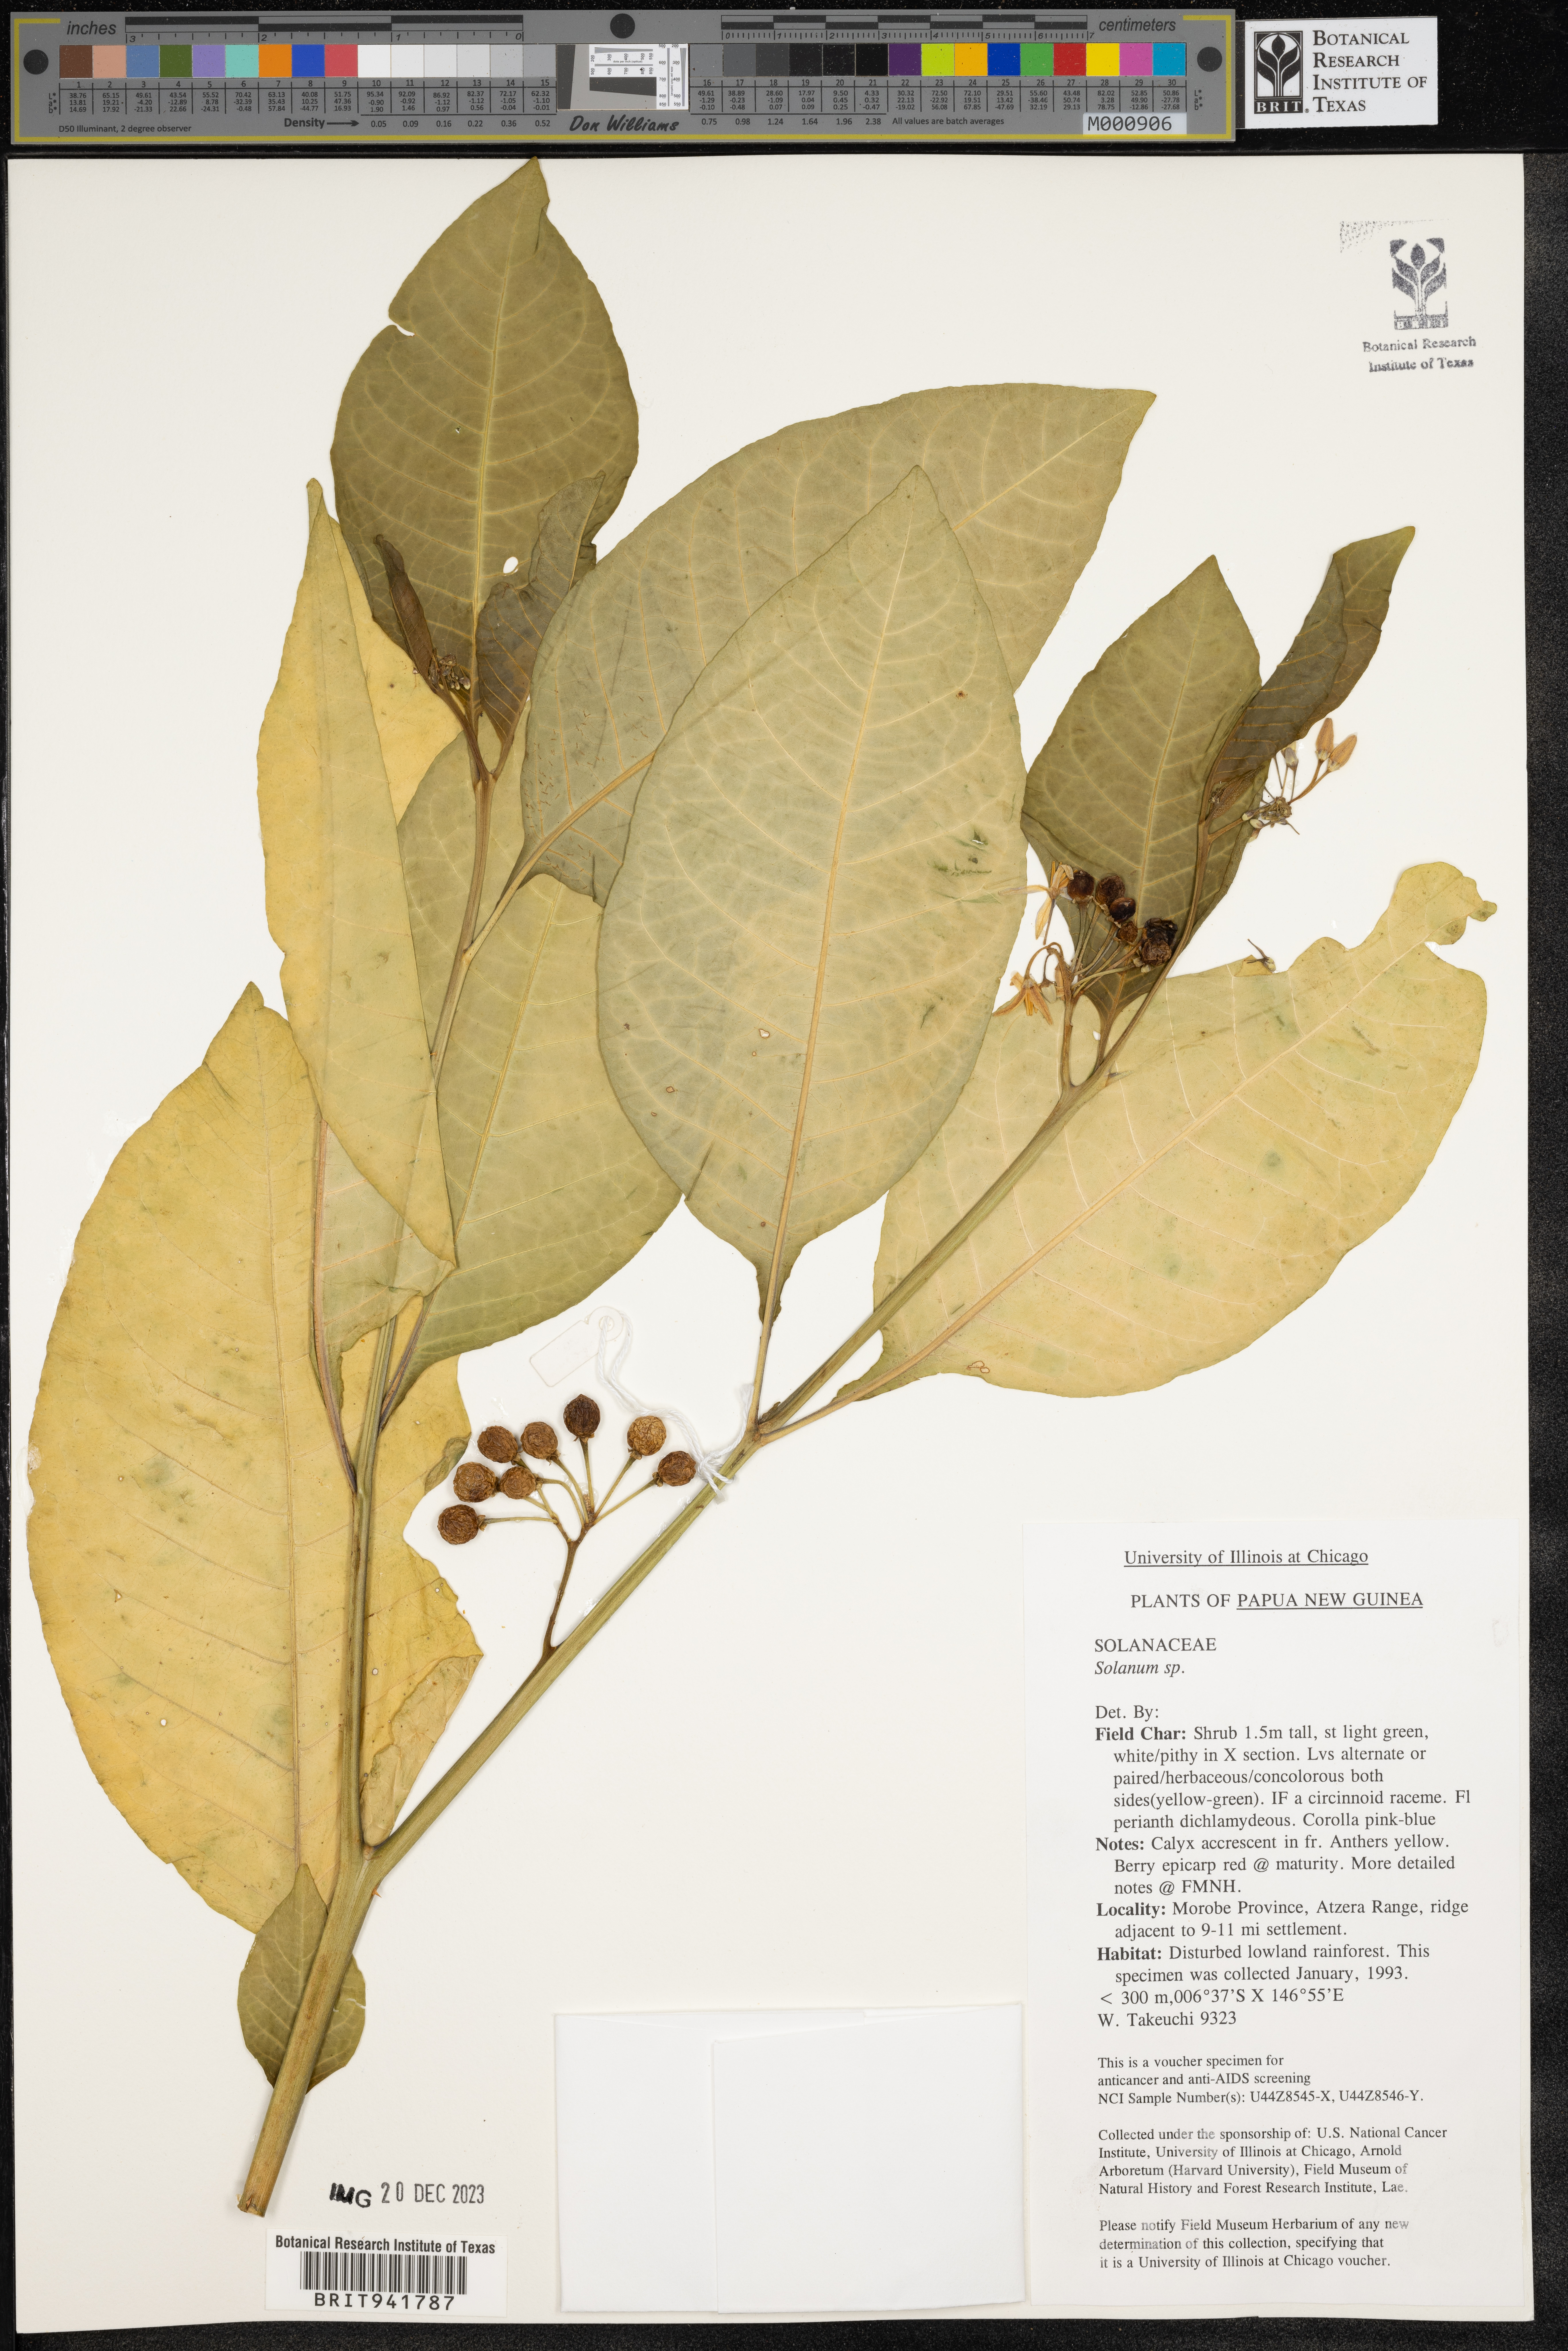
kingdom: Plantae
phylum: Tracheophyta
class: Magnoliopsida
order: Solanales
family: Solanaceae
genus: Solanum
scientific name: Solanum
